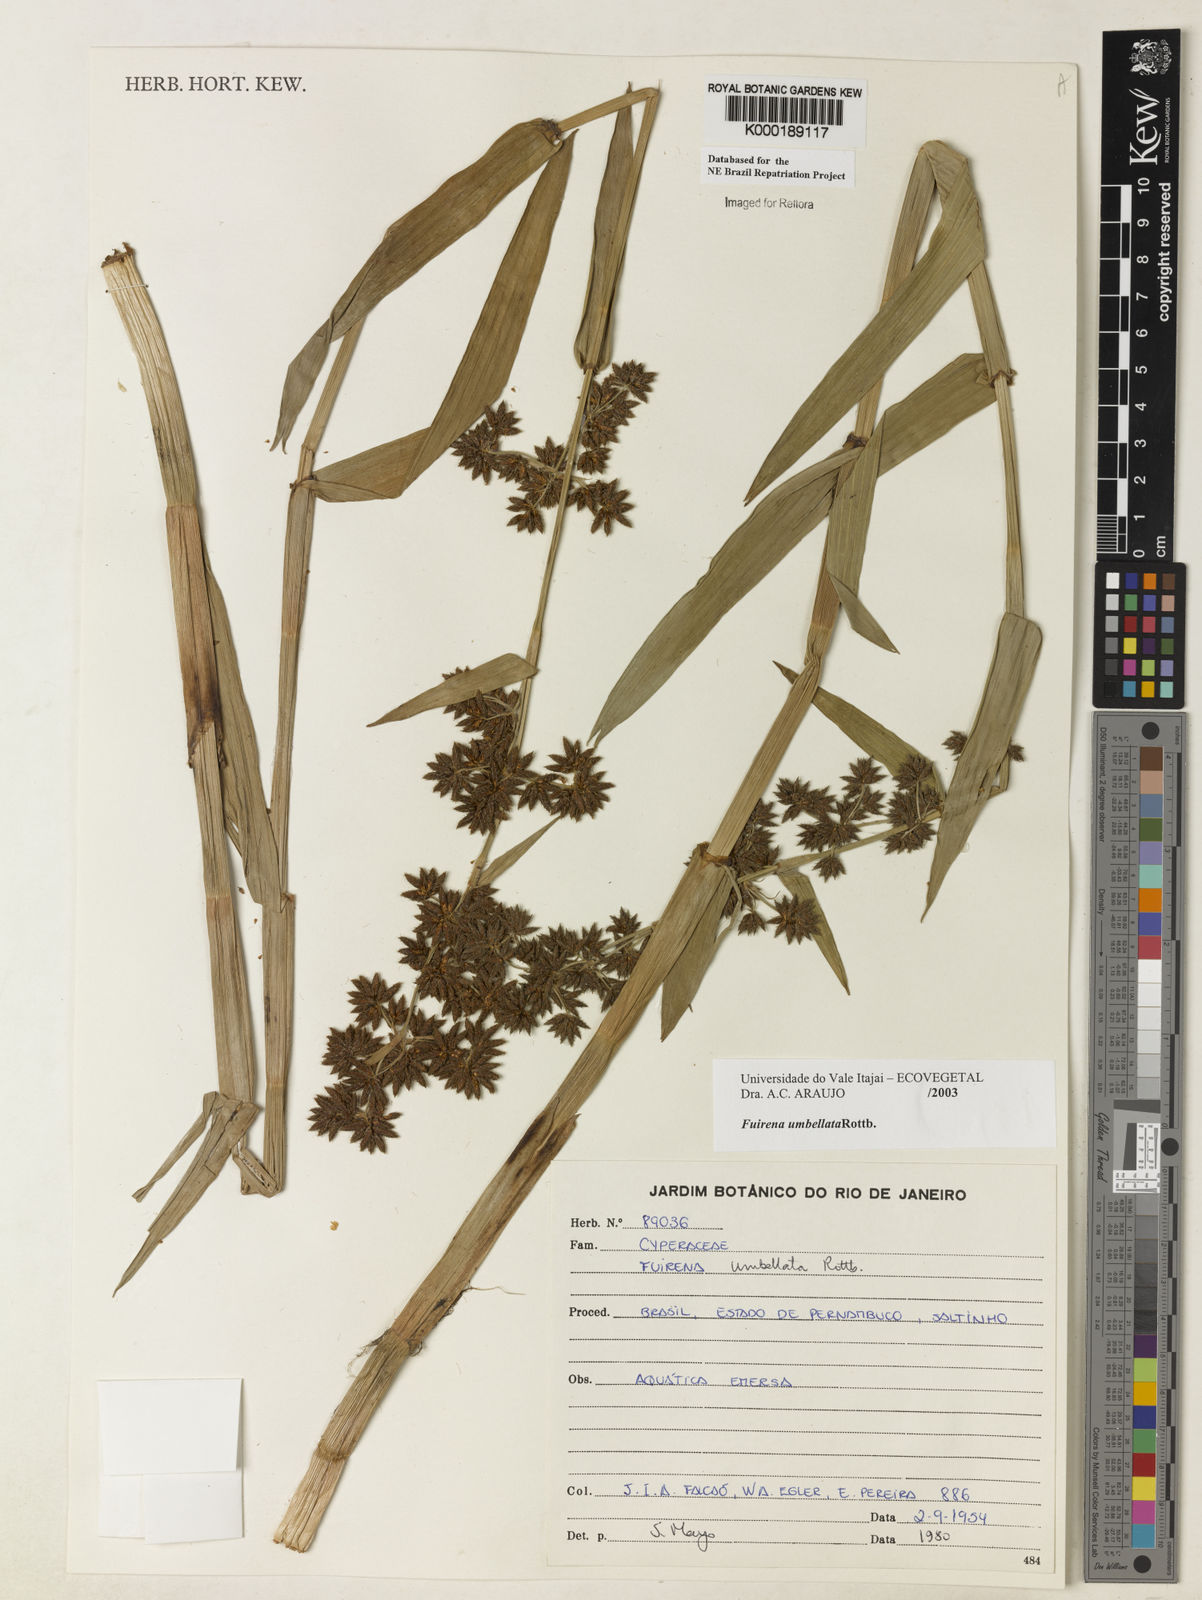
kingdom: Plantae
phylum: Tracheophyta
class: Liliopsida
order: Poales
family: Cyperaceae
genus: Fuirena
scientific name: Fuirena umbellata
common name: Yefen
